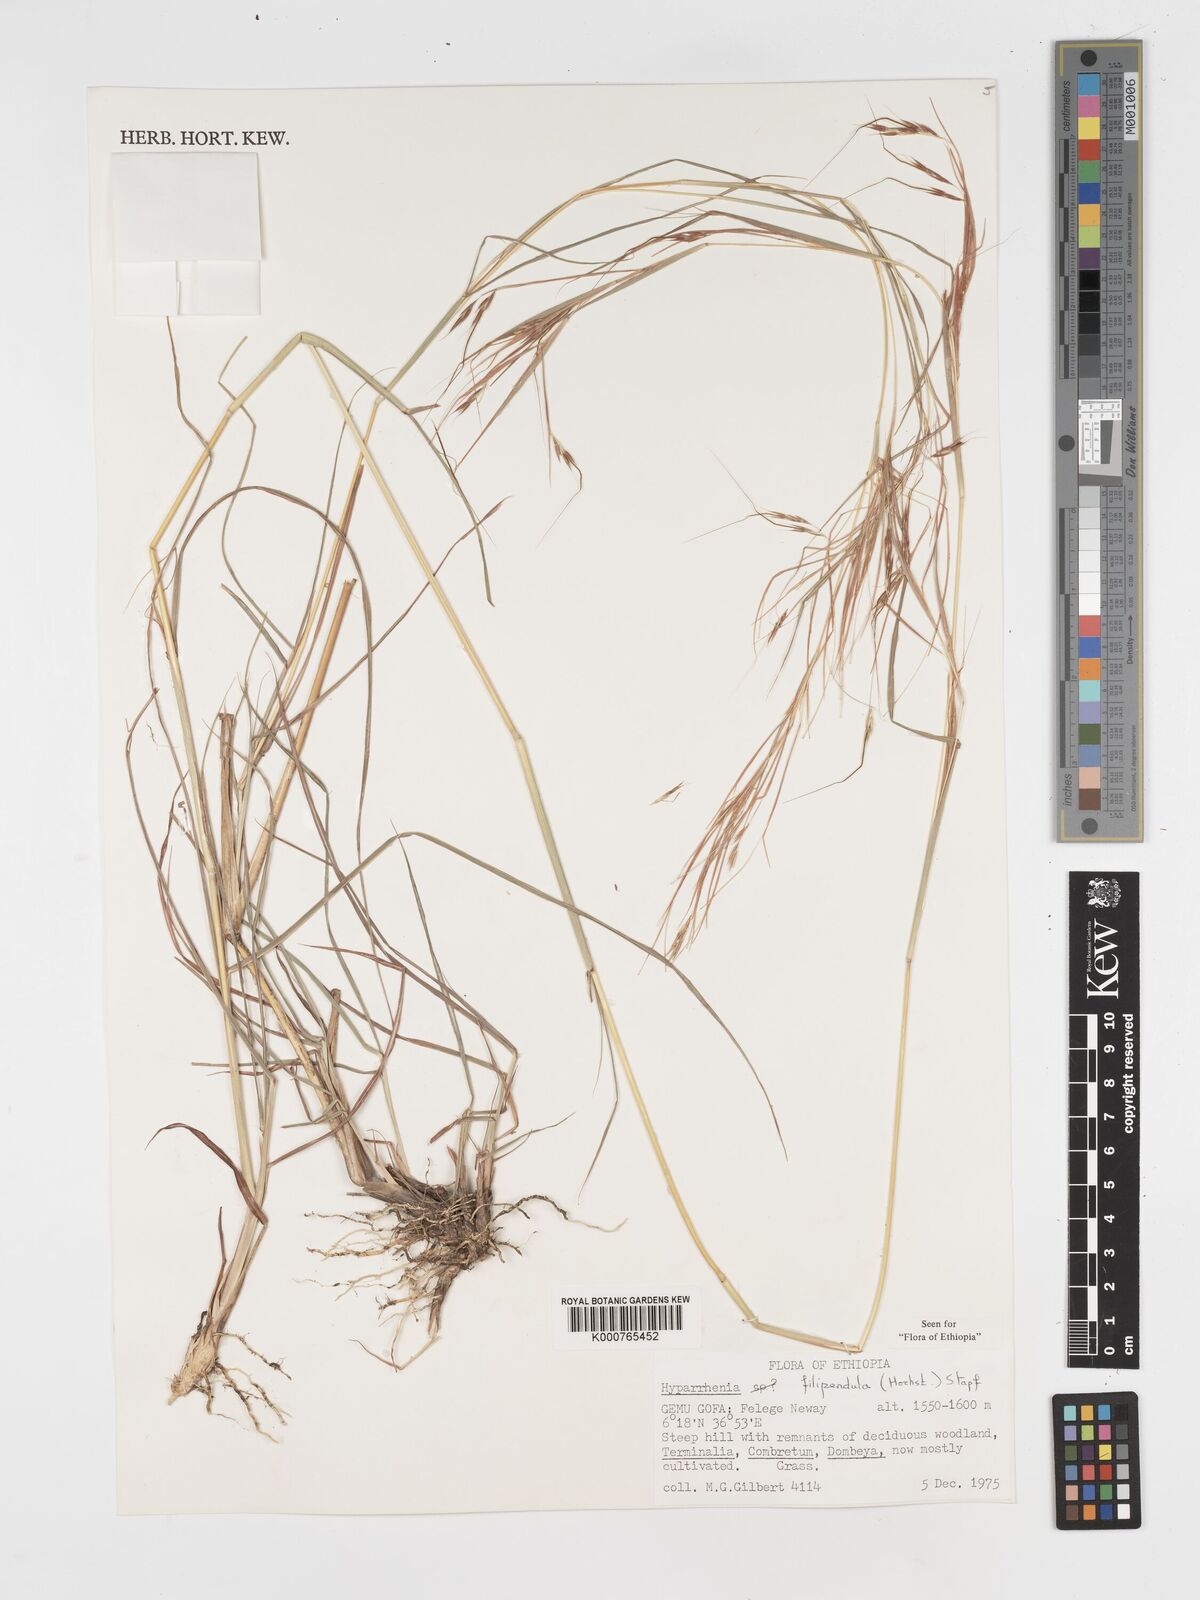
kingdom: Plantae
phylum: Tracheophyta
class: Liliopsida
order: Poales
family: Poaceae
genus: Hyparrhenia
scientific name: Hyparrhenia filipendula
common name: Tambookie grass
